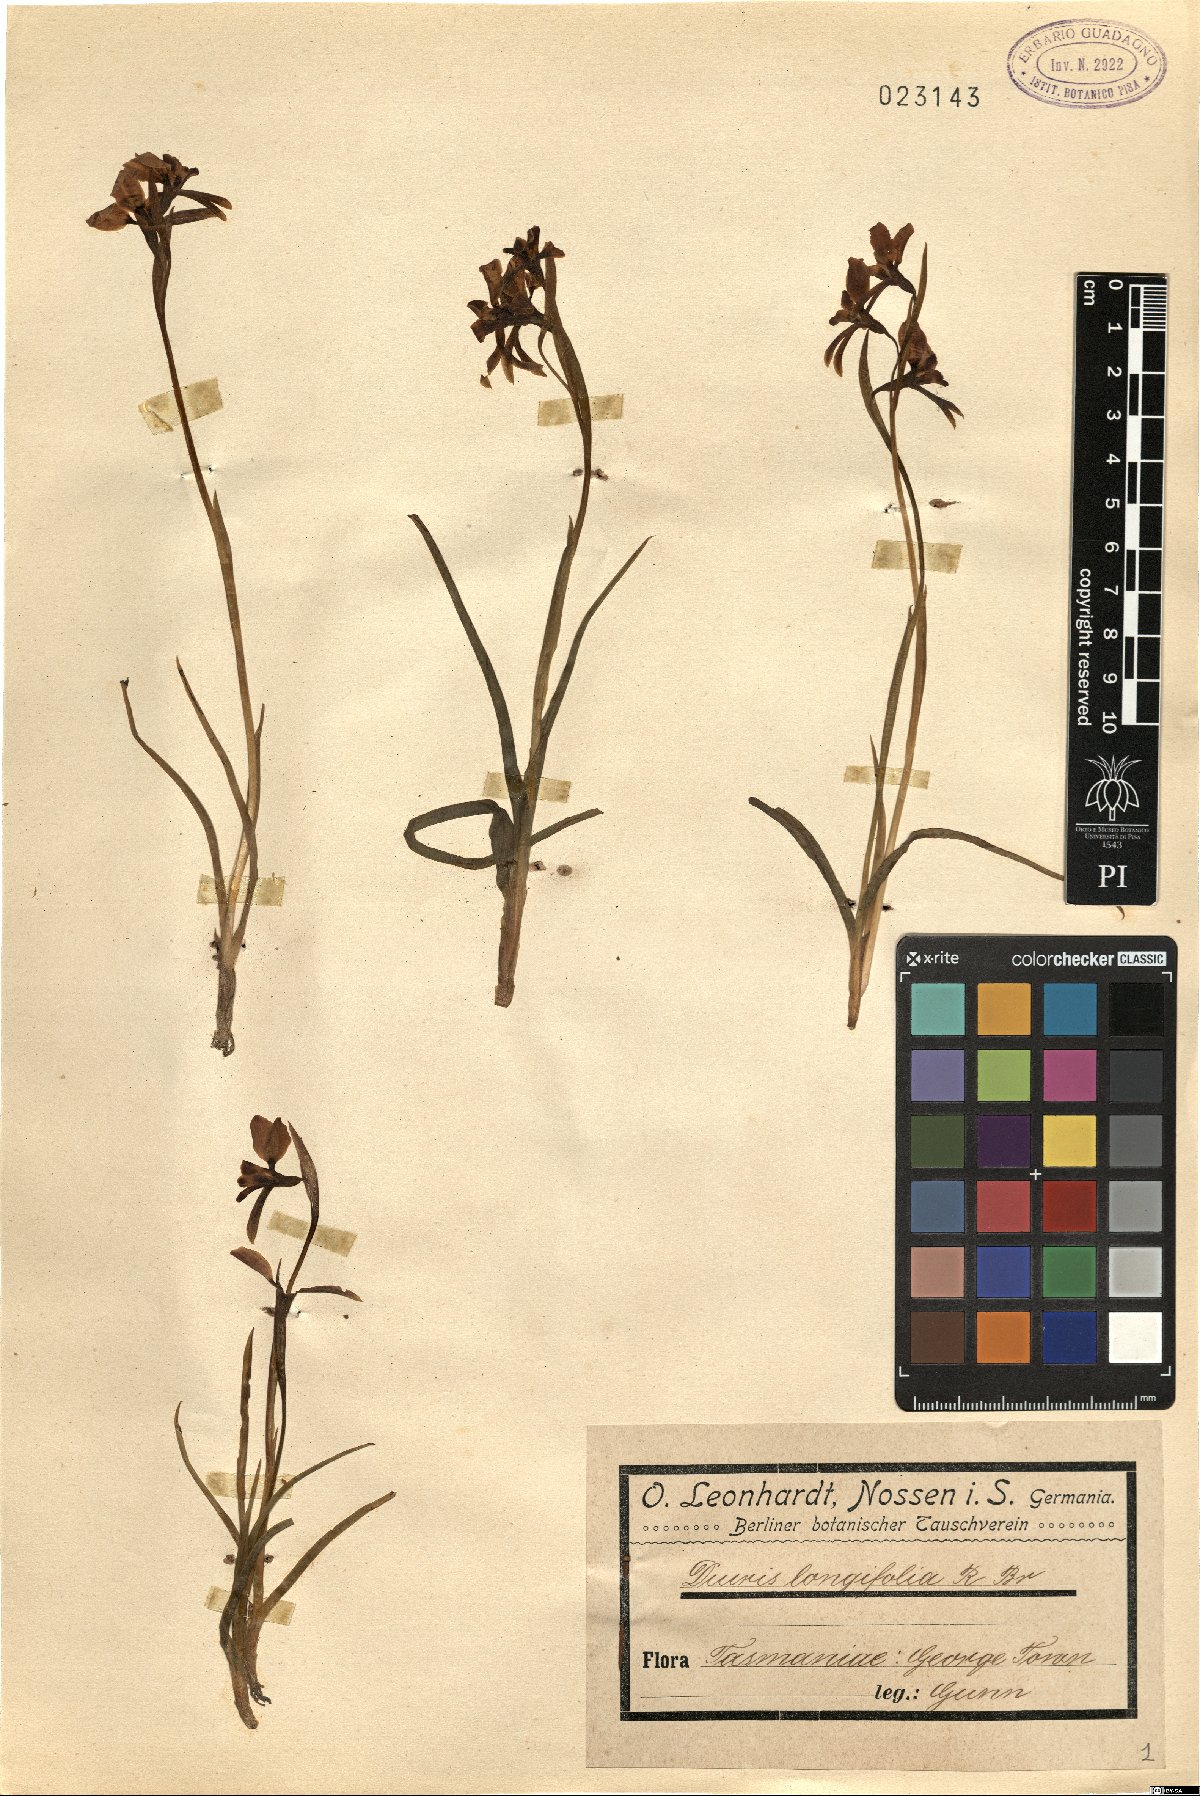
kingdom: Plantae
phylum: Tracheophyta
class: Liliopsida
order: Asparagales
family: Orchidaceae
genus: Diuris
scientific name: Diuris longifolia
